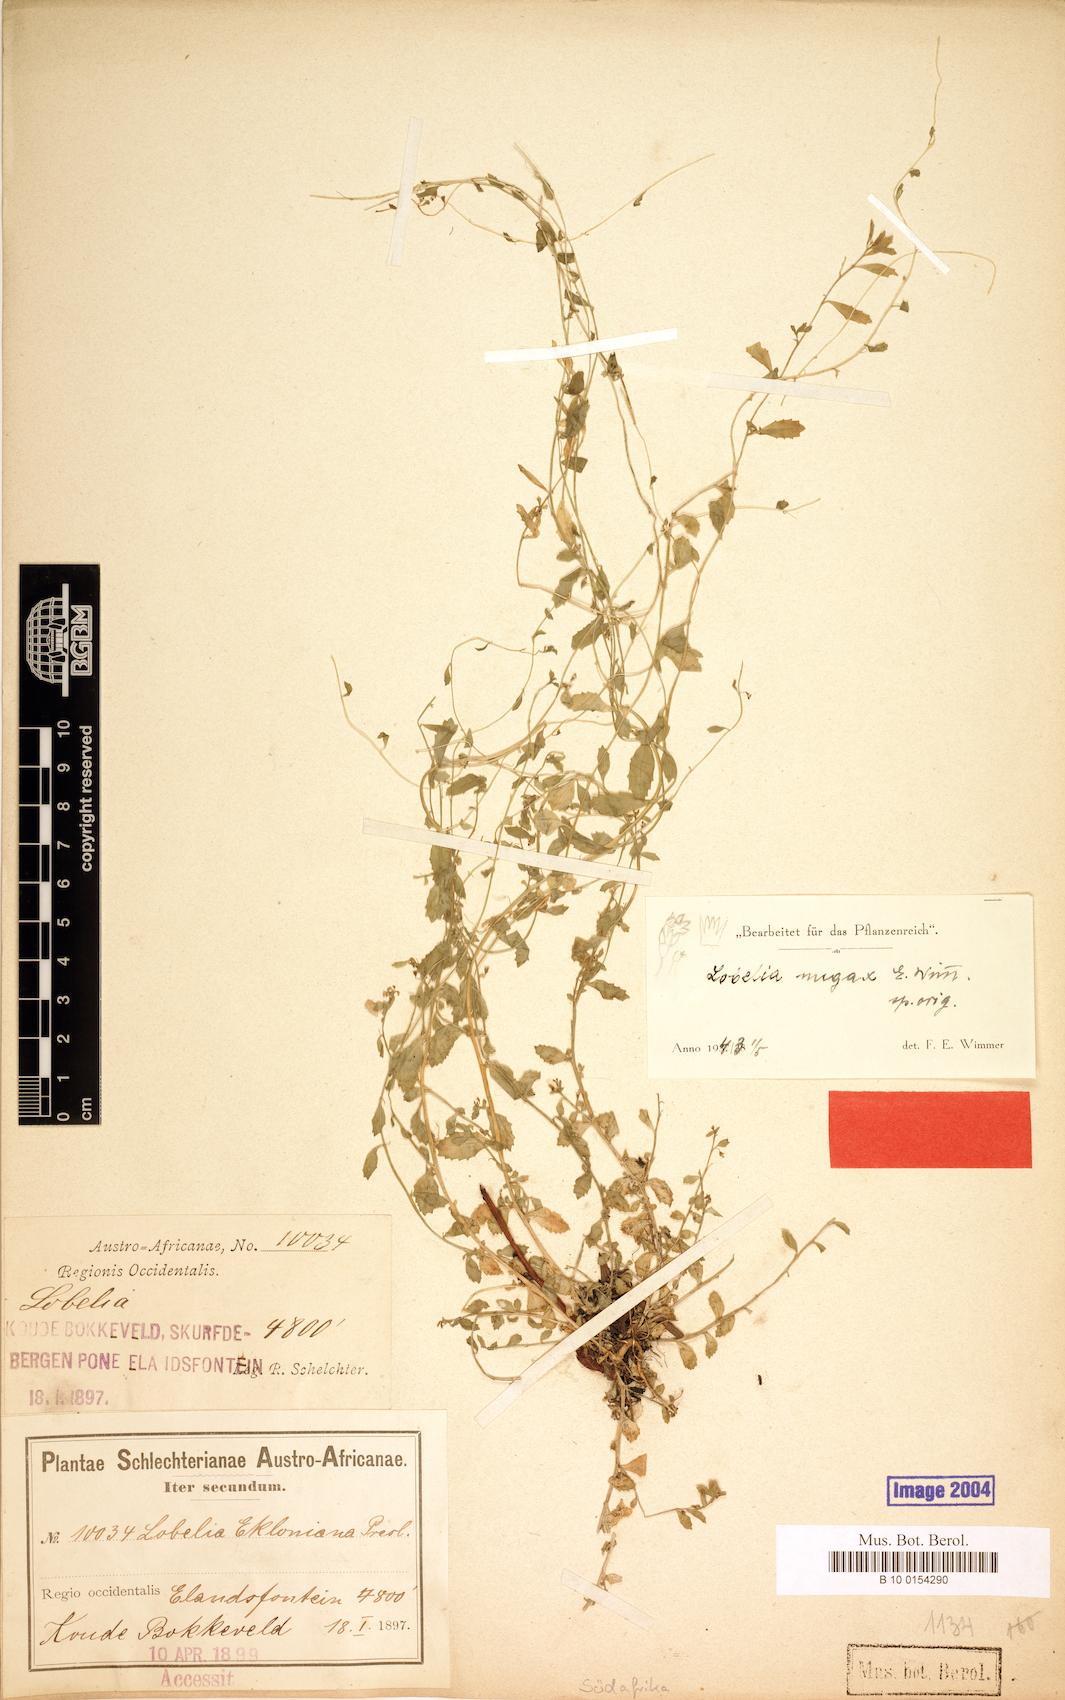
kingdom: Plantae
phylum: Tracheophyta
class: Magnoliopsida
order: Asterales
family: Campanulaceae
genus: Lobelia
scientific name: Lobelia nugax
